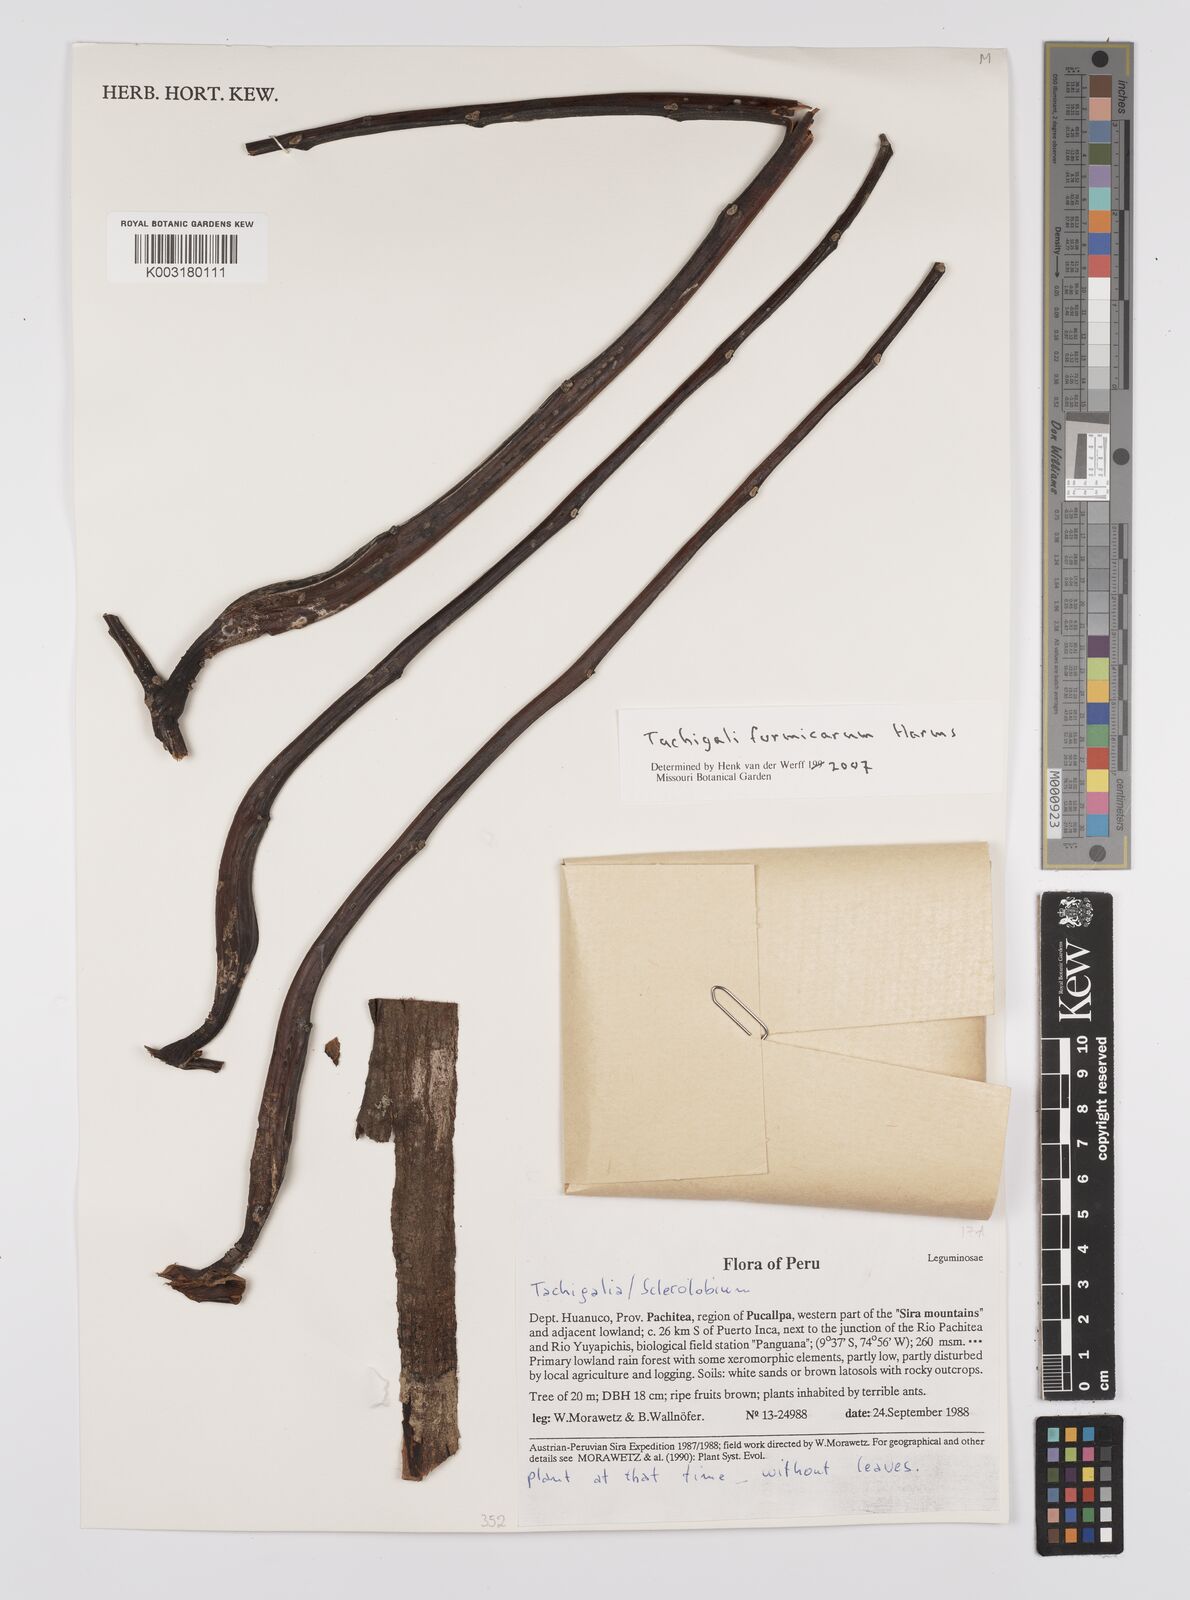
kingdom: Plantae
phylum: Tracheophyta
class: Magnoliopsida
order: Fabales
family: Fabaceae
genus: Tachigali
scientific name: Tachigali formicarum
